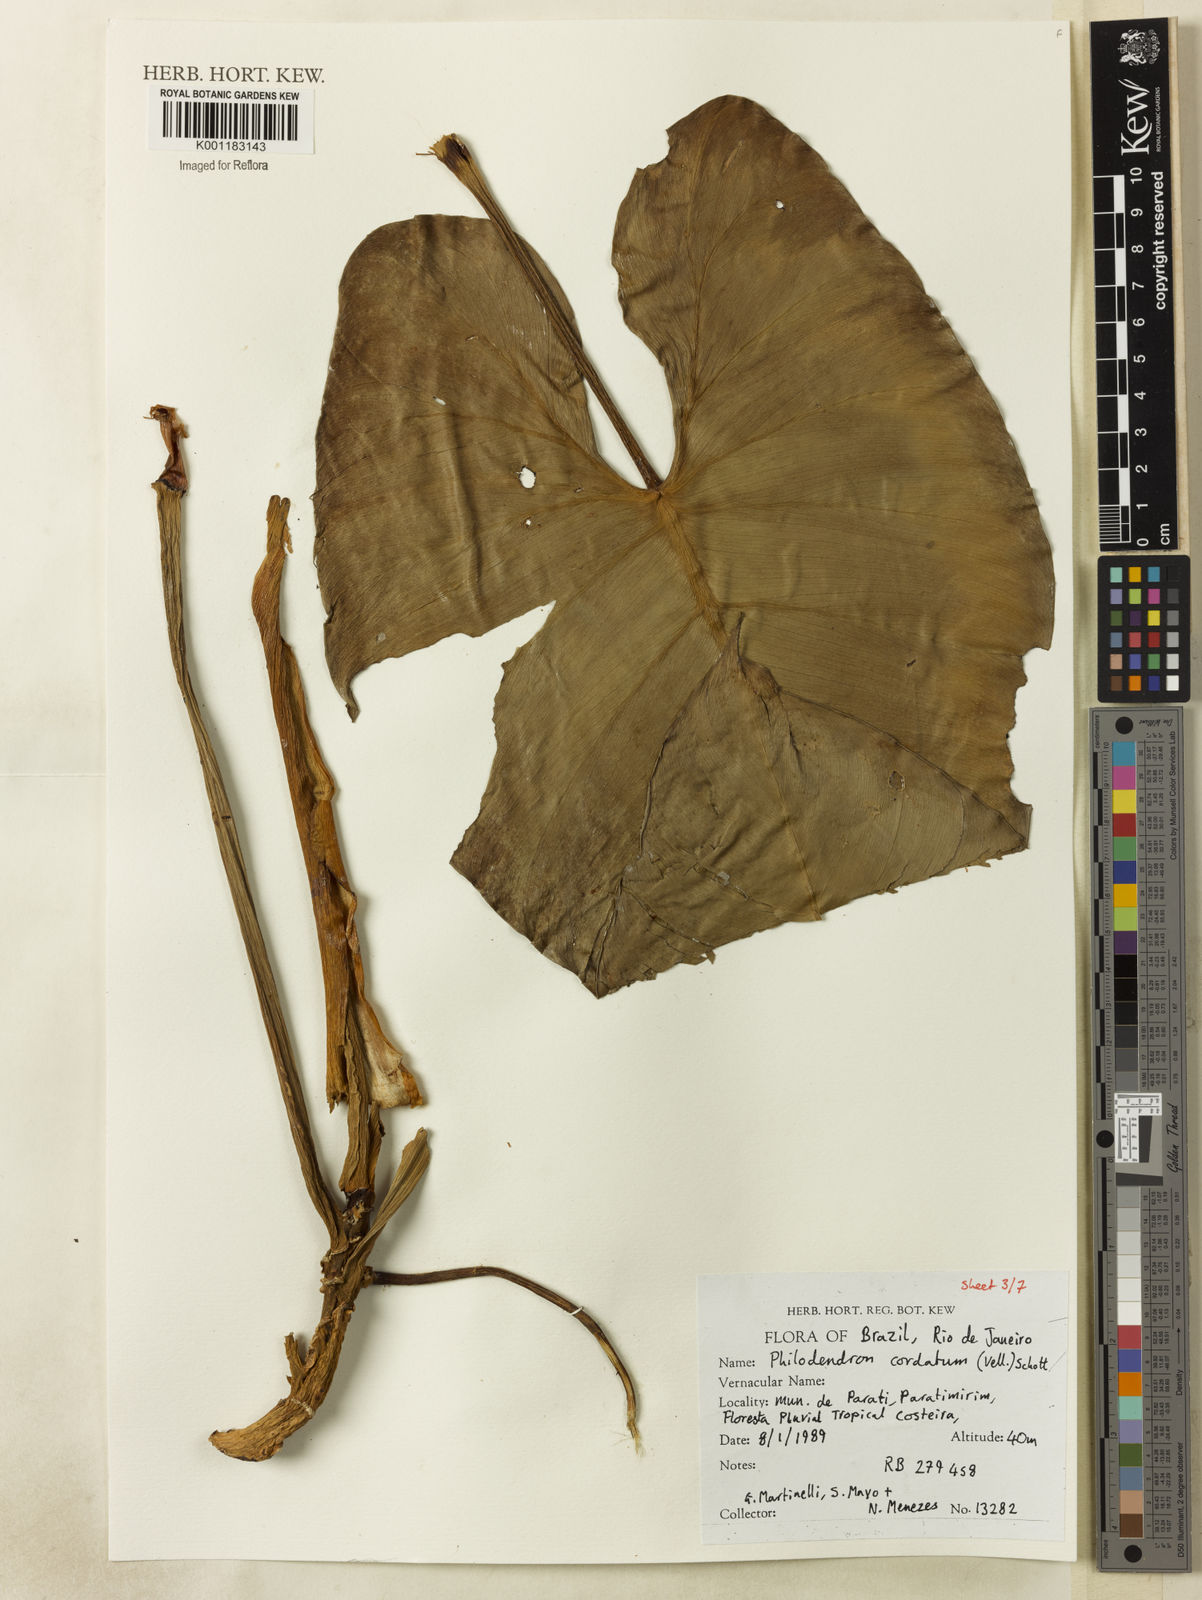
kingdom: Plantae
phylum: Tracheophyta
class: Liliopsida
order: Alismatales
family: Araceae
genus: Philodendron
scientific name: Philodendron cordatum
